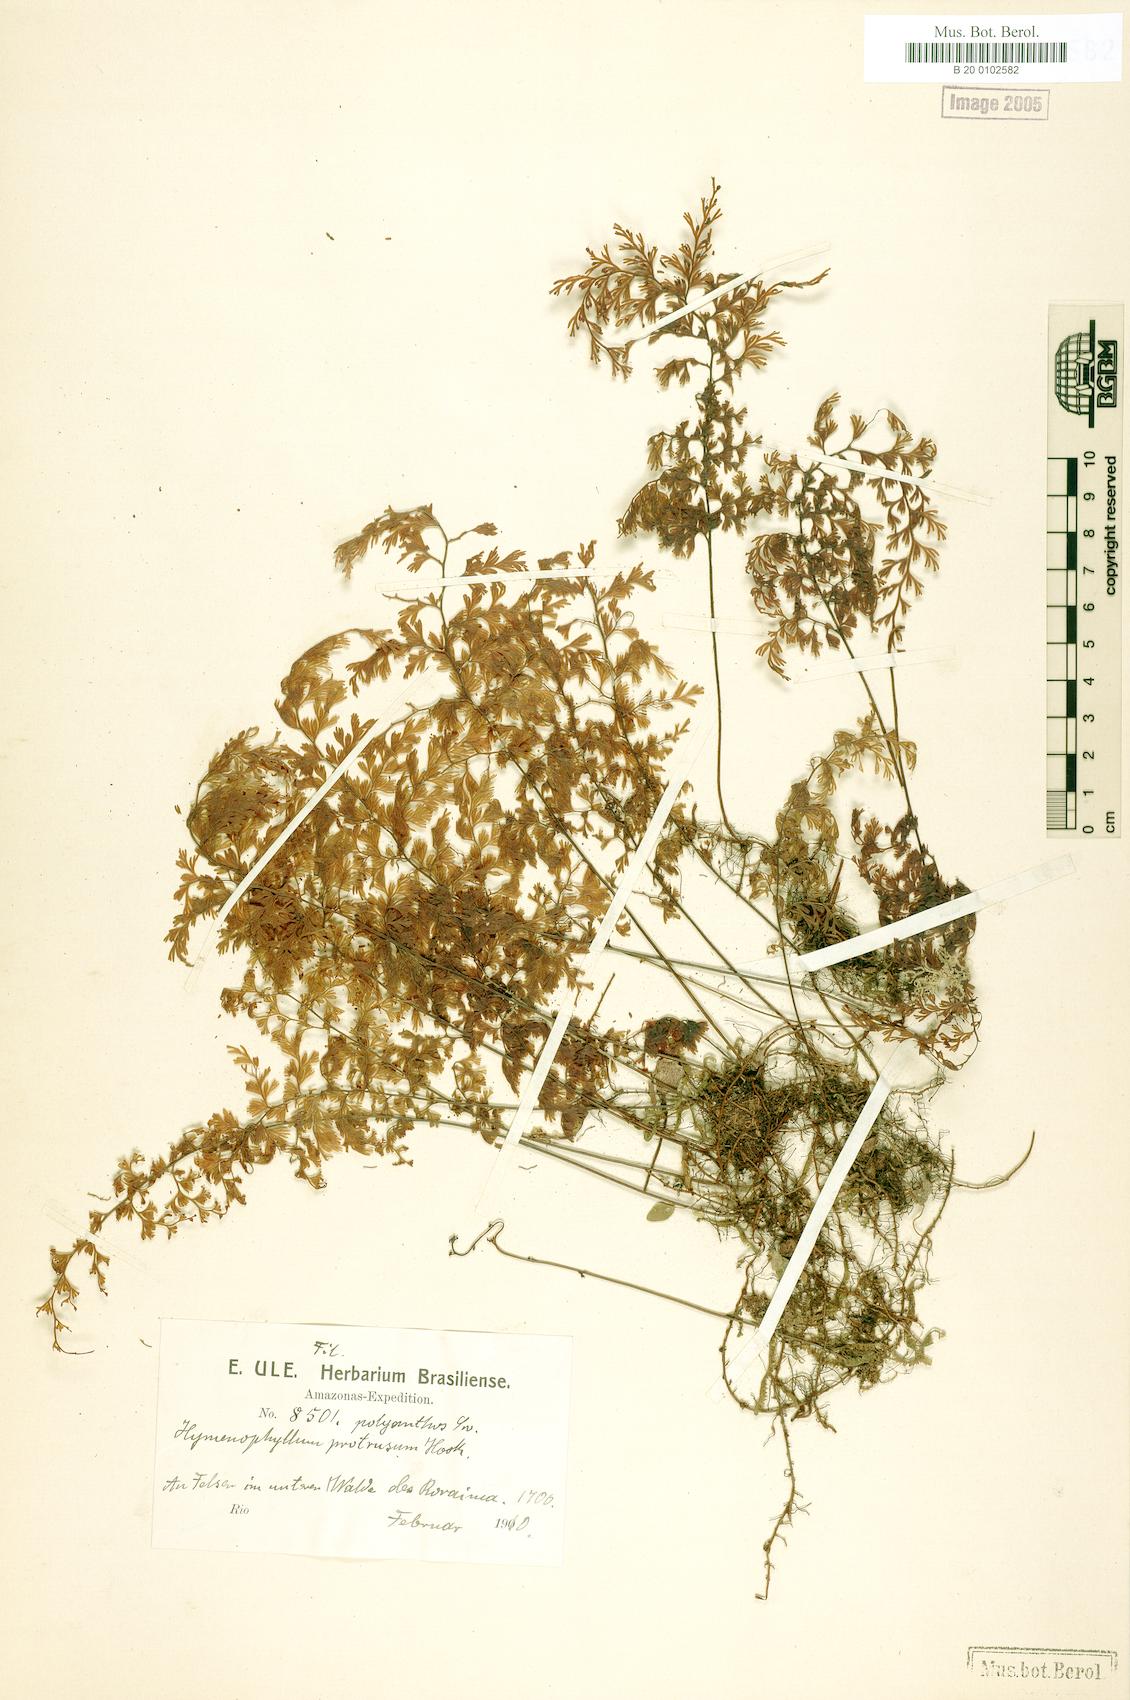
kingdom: Plantae
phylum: Tracheophyta
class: Polypodiopsida
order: Hymenophyllales
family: Hymenophyllaceae
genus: Hymenophyllum
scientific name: Hymenophyllum polyanthos
